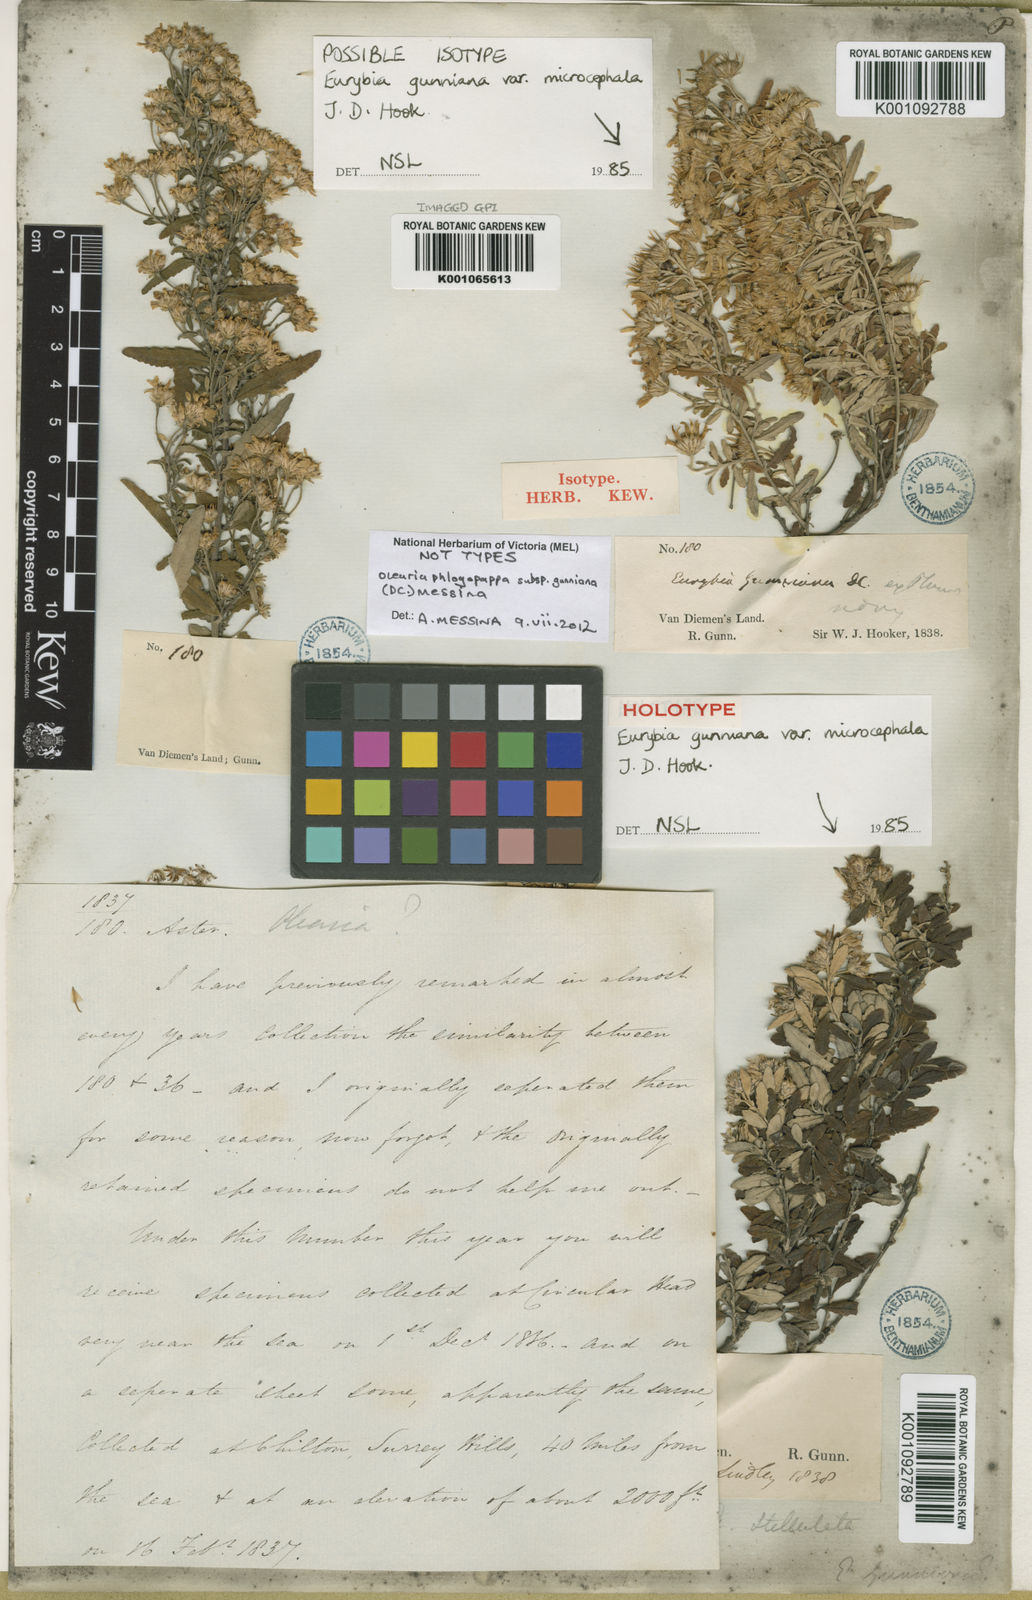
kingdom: Plantae
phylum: Tracheophyta
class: Magnoliopsida
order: Asterales
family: Asteraceae
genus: Olearia
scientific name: Olearia phlogopappa
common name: Alpine daisybush
